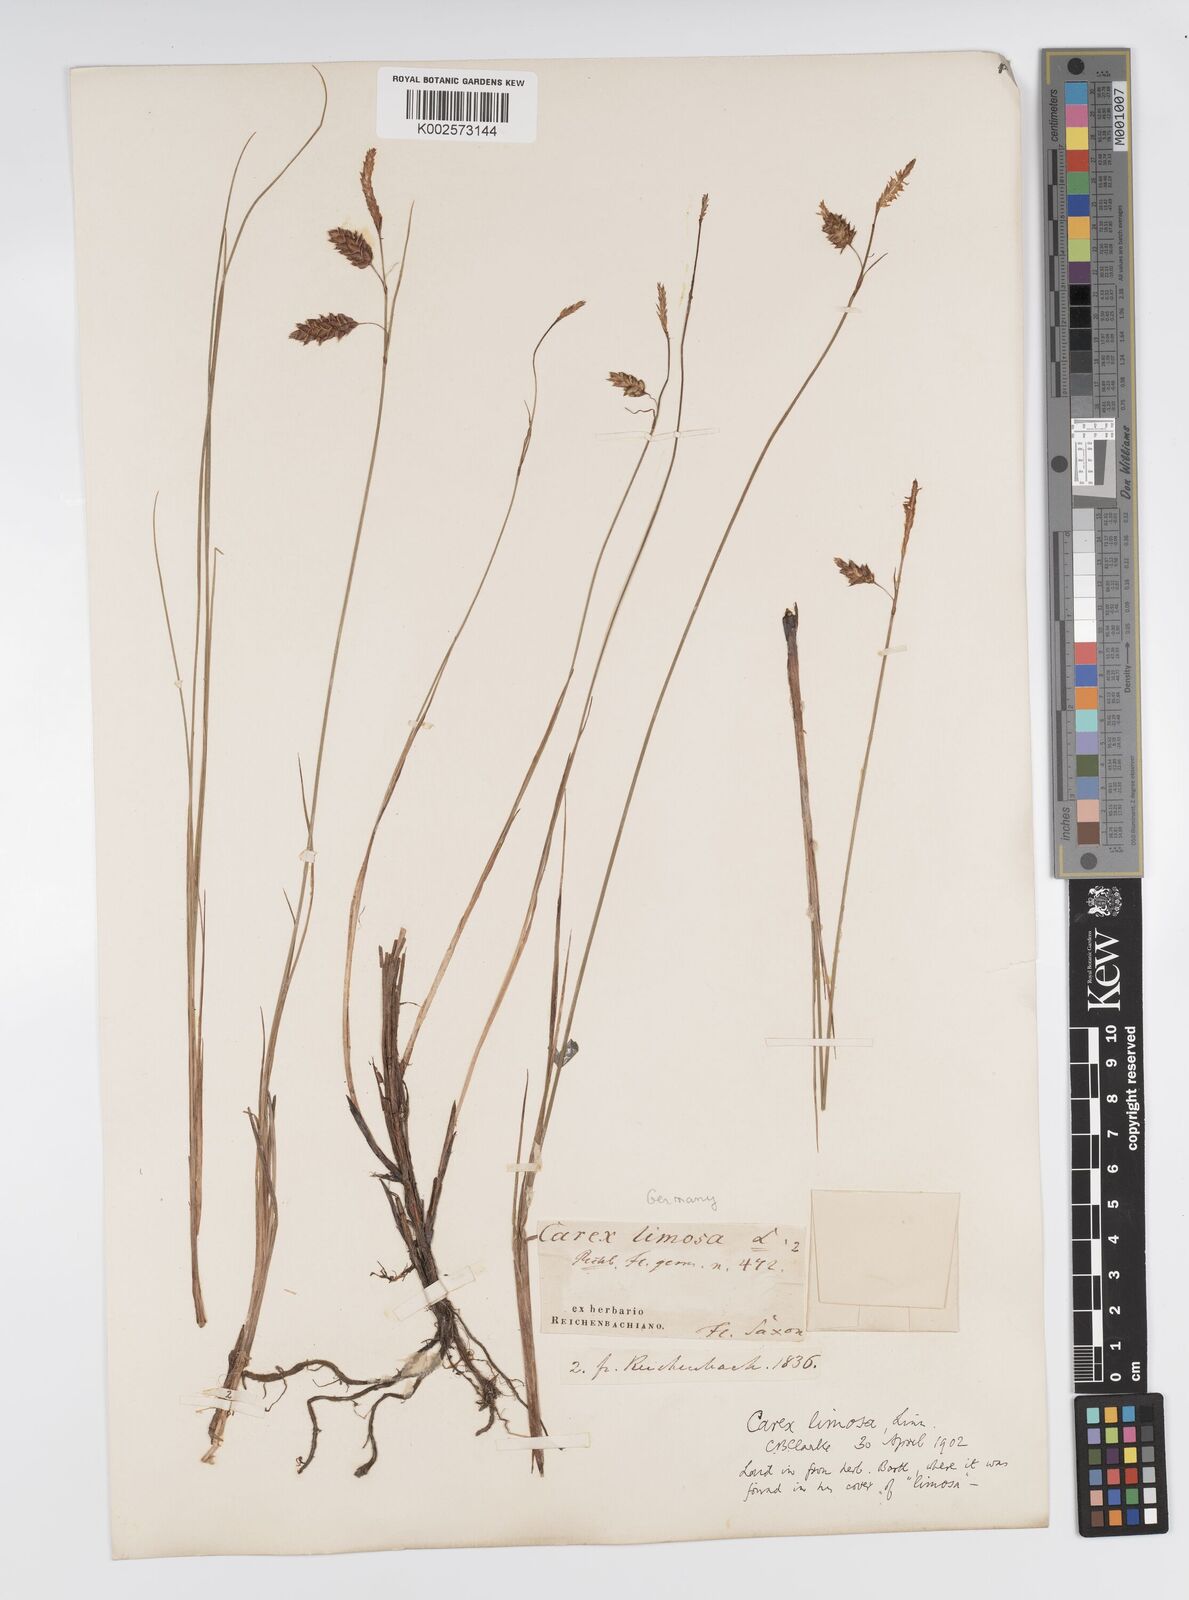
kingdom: Plantae
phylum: Tracheophyta
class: Liliopsida
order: Poales
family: Cyperaceae
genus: Carex
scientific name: Carex limosa
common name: Bog sedge
